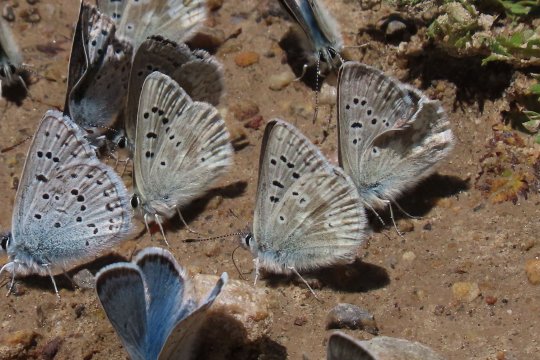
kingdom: Animalia
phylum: Arthropoda
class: Insecta
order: Lepidoptera
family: Lycaenidae
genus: Agriades
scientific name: Agriades glandon
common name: Arctic Blue
